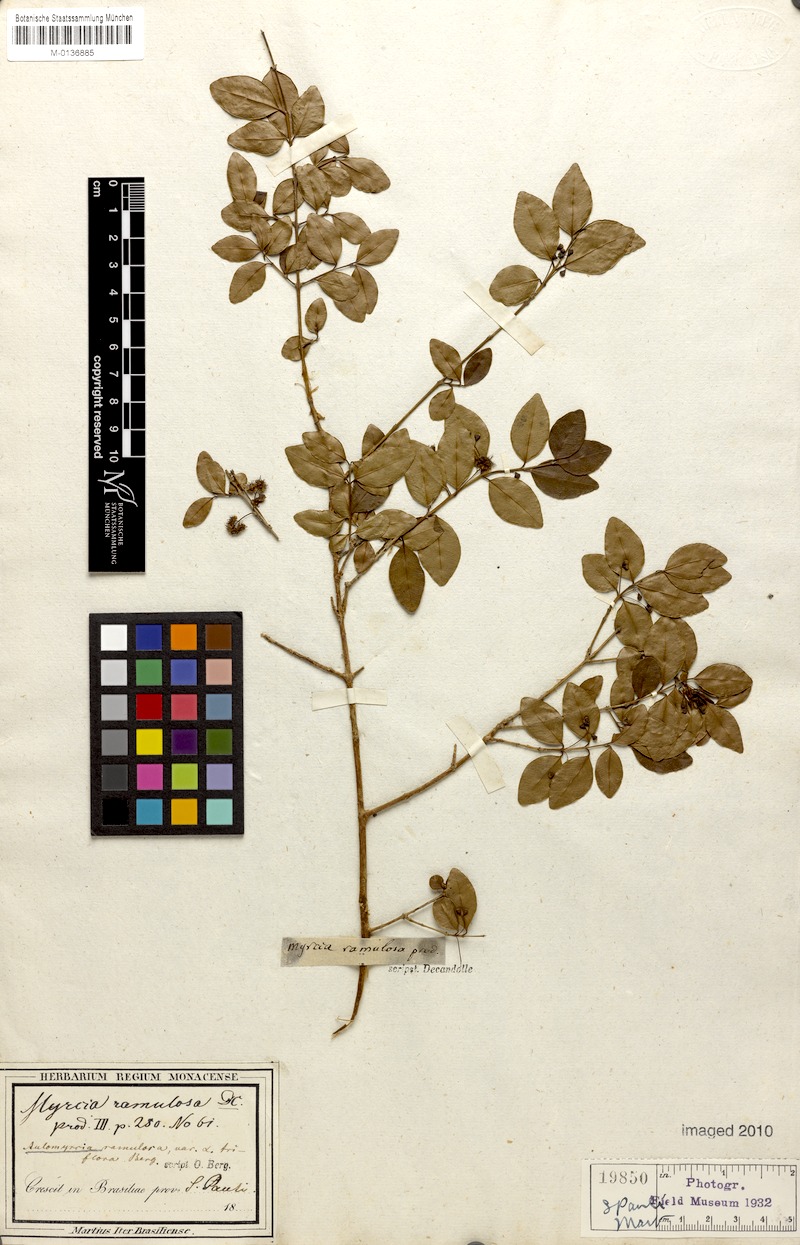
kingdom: Plantae
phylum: Tracheophyta
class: Magnoliopsida
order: Myrtales
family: Myrtaceae
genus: Myrcia
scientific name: Myrcia selloi
